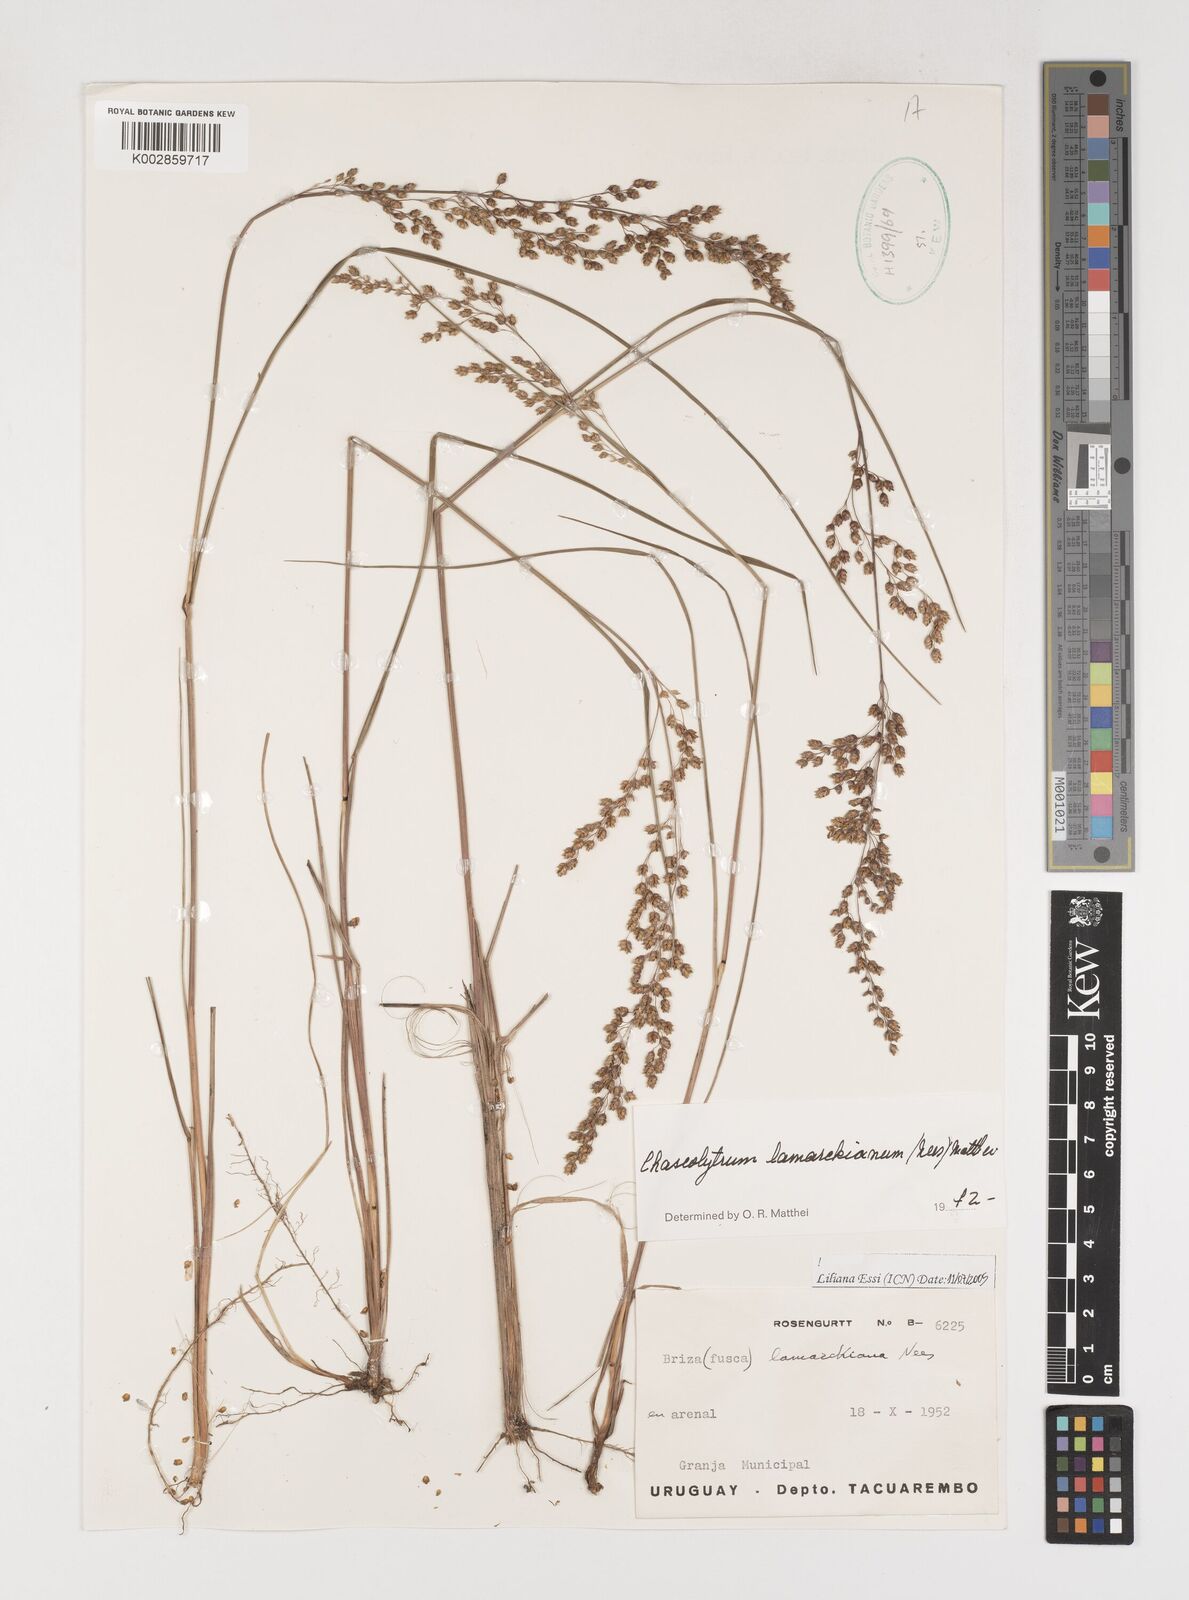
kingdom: Plantae
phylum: Tracheophyta
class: Liliopsida
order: Poales
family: Poaceae
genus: Chascolytrum
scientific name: Chascolytrum lamarckianum
